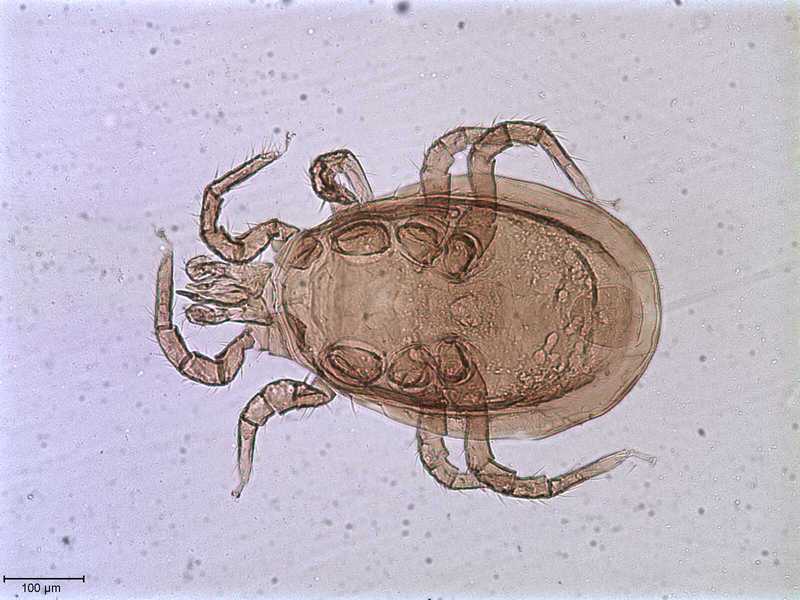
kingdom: Animalia
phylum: Arthropoda
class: Arachnida
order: Mesostigmata
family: Melicharidae
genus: Mycomelichares
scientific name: Mycomelichares cyllodi
